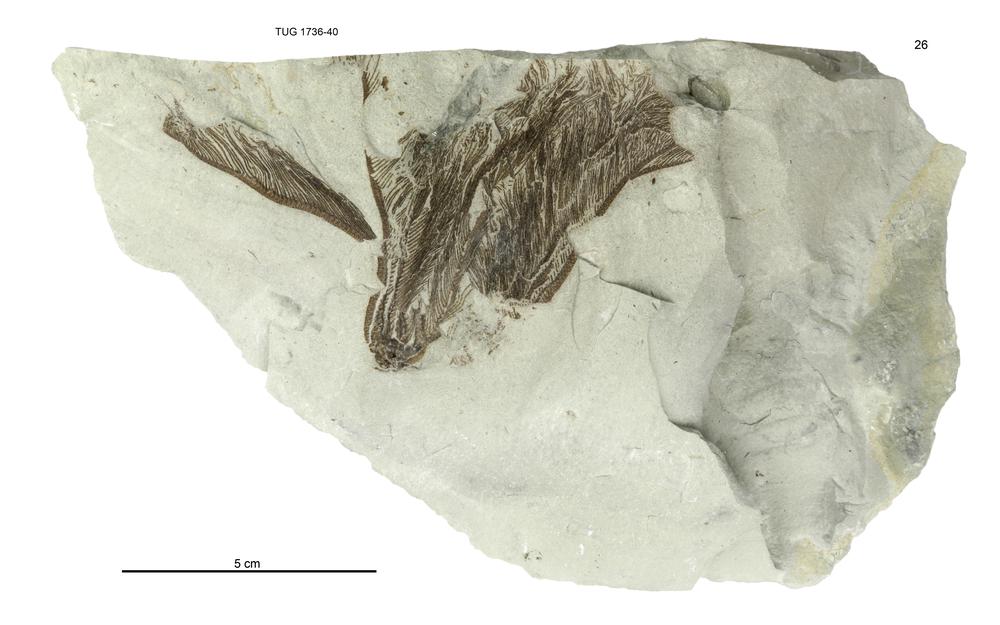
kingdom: Animalia
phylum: Echinodermata
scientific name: Echinodermata
